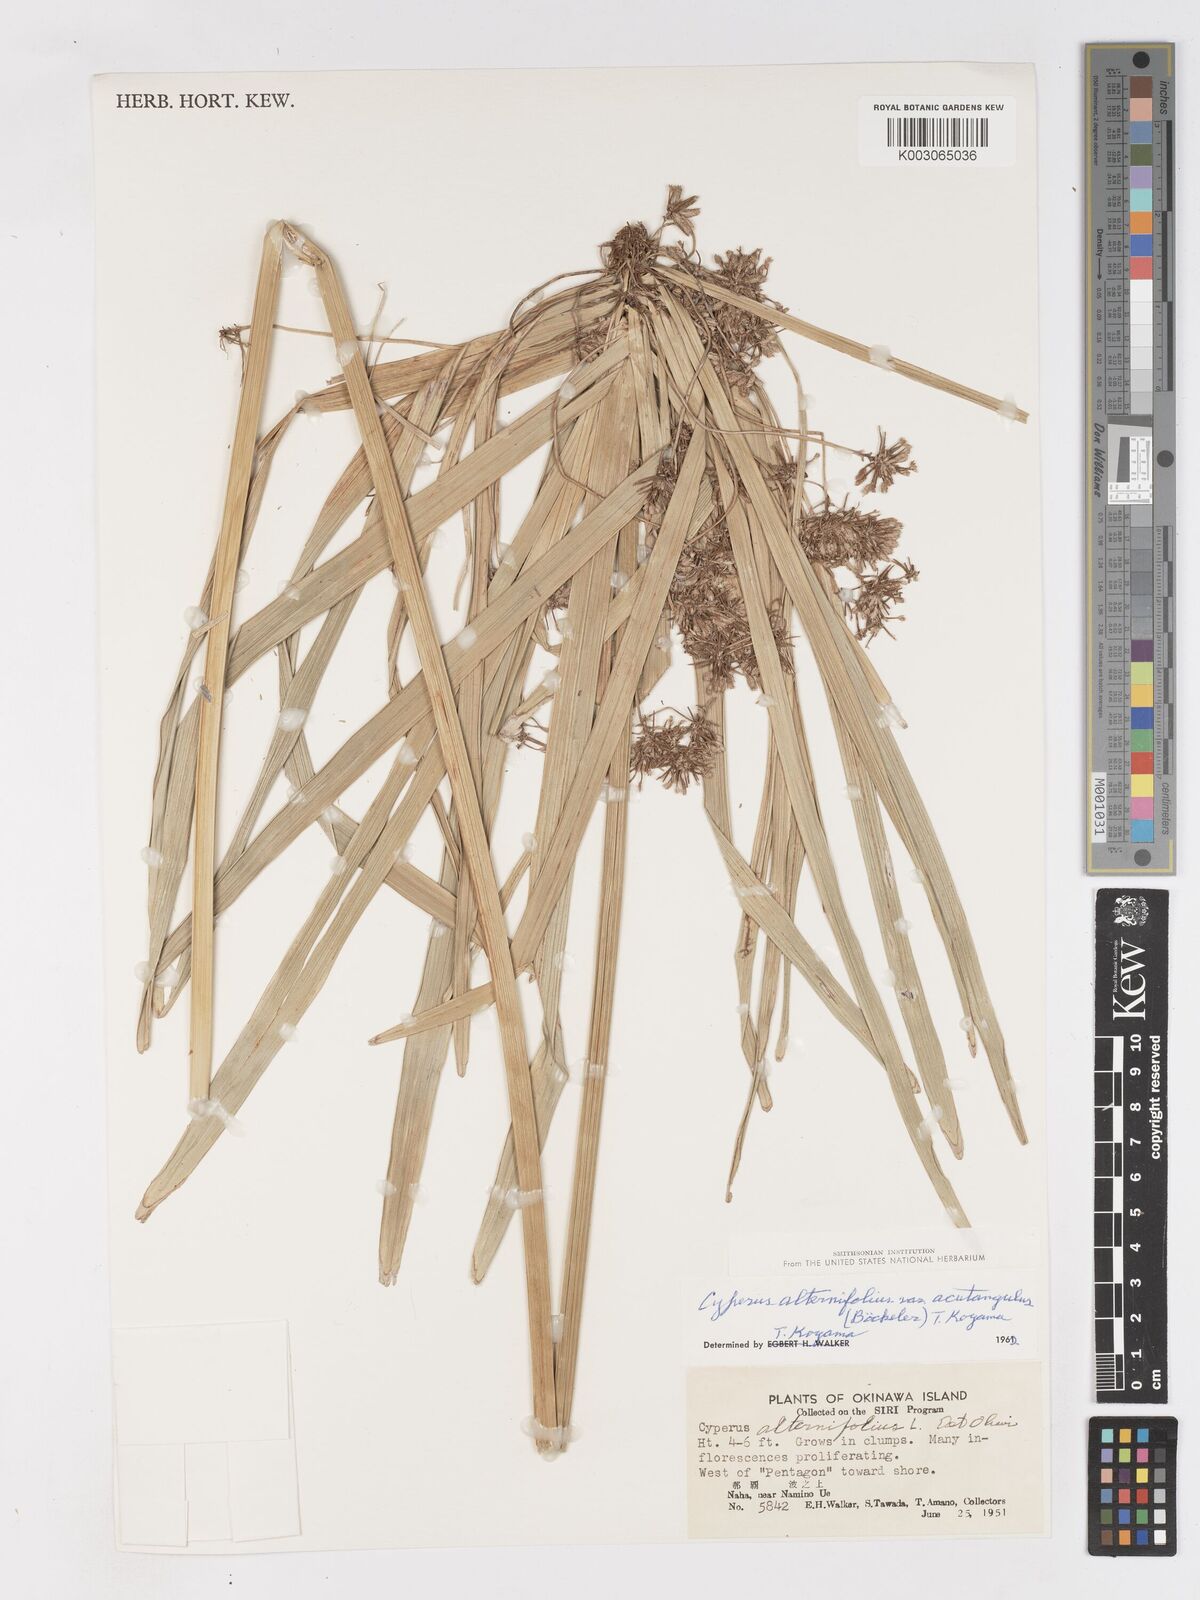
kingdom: Plantae
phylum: Tracheophyta
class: Liliopsida
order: Poales
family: Cyperaceae
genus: Cyperus
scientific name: Cyperus alternifolius
